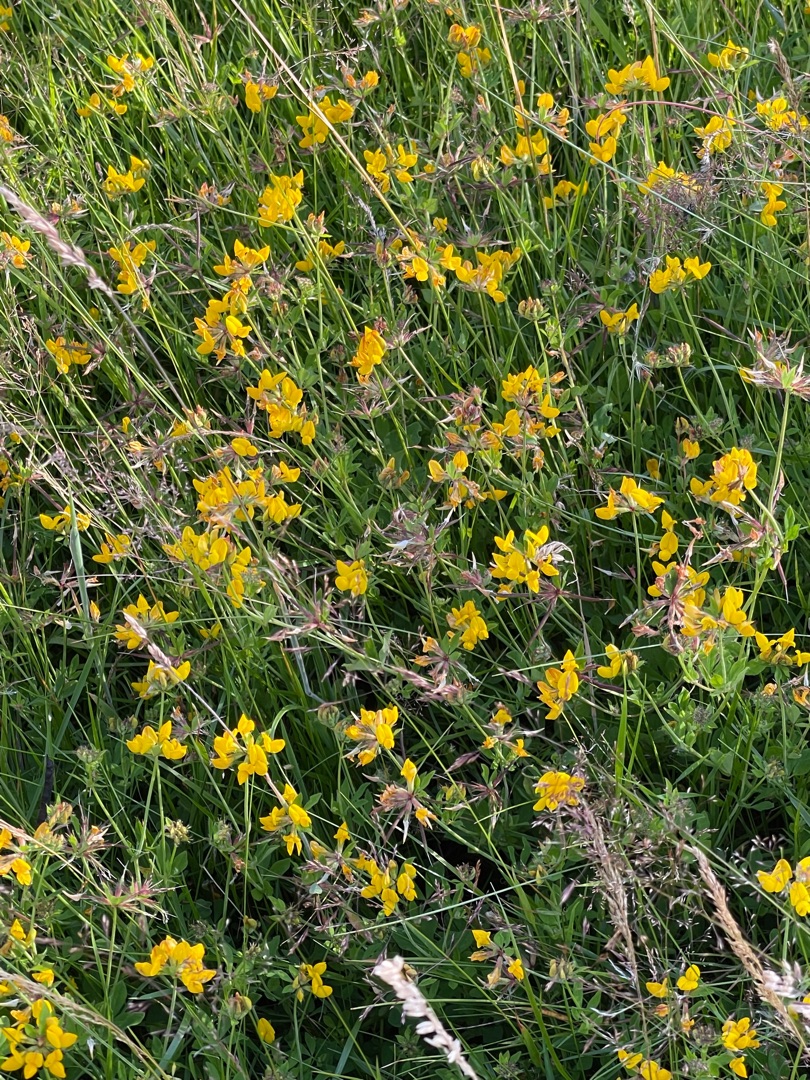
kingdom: Plantae
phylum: Tracheophyta
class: Magnoliopsida
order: Fabales
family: Fabaceae
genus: Lotus
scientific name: Lotus corniculatus
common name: Almindelig kællingetand
